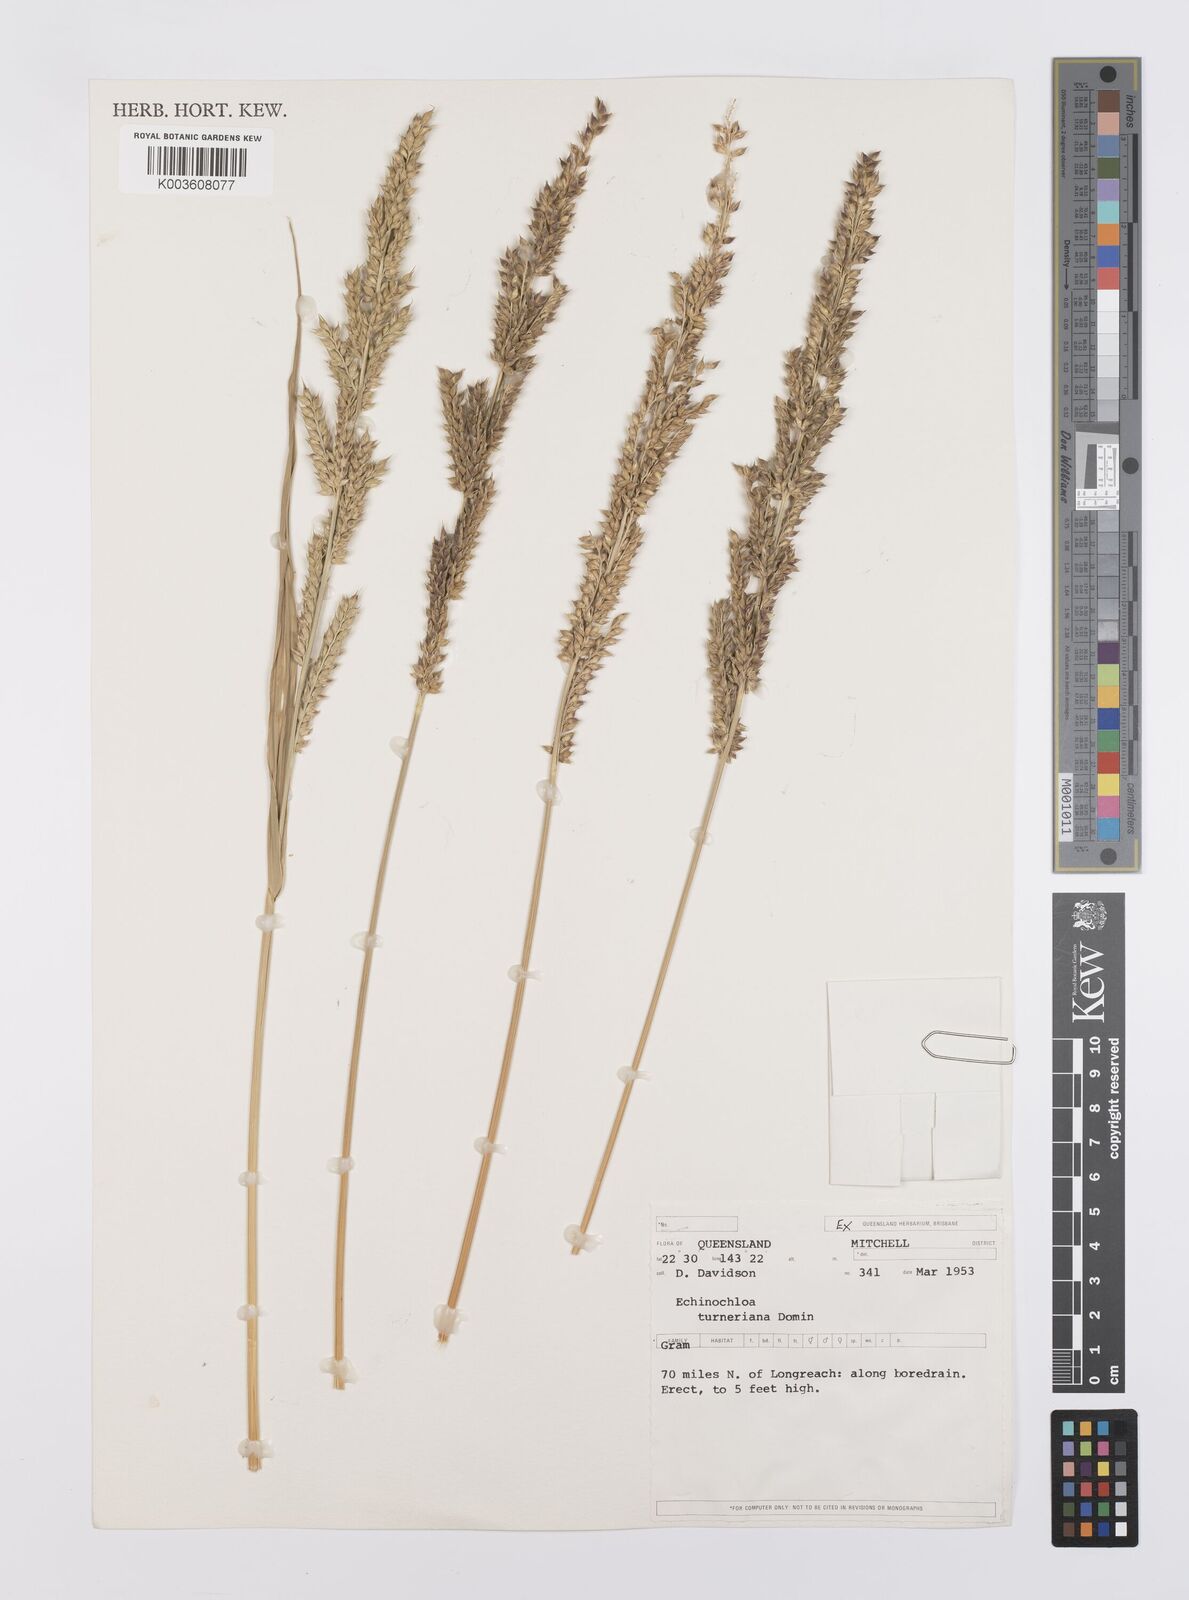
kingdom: Plantae
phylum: Tracheophyta
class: Liliopsida
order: Poales
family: Poaceae
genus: Echinochloa
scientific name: Echinochloa turneriana
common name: Channel millet
